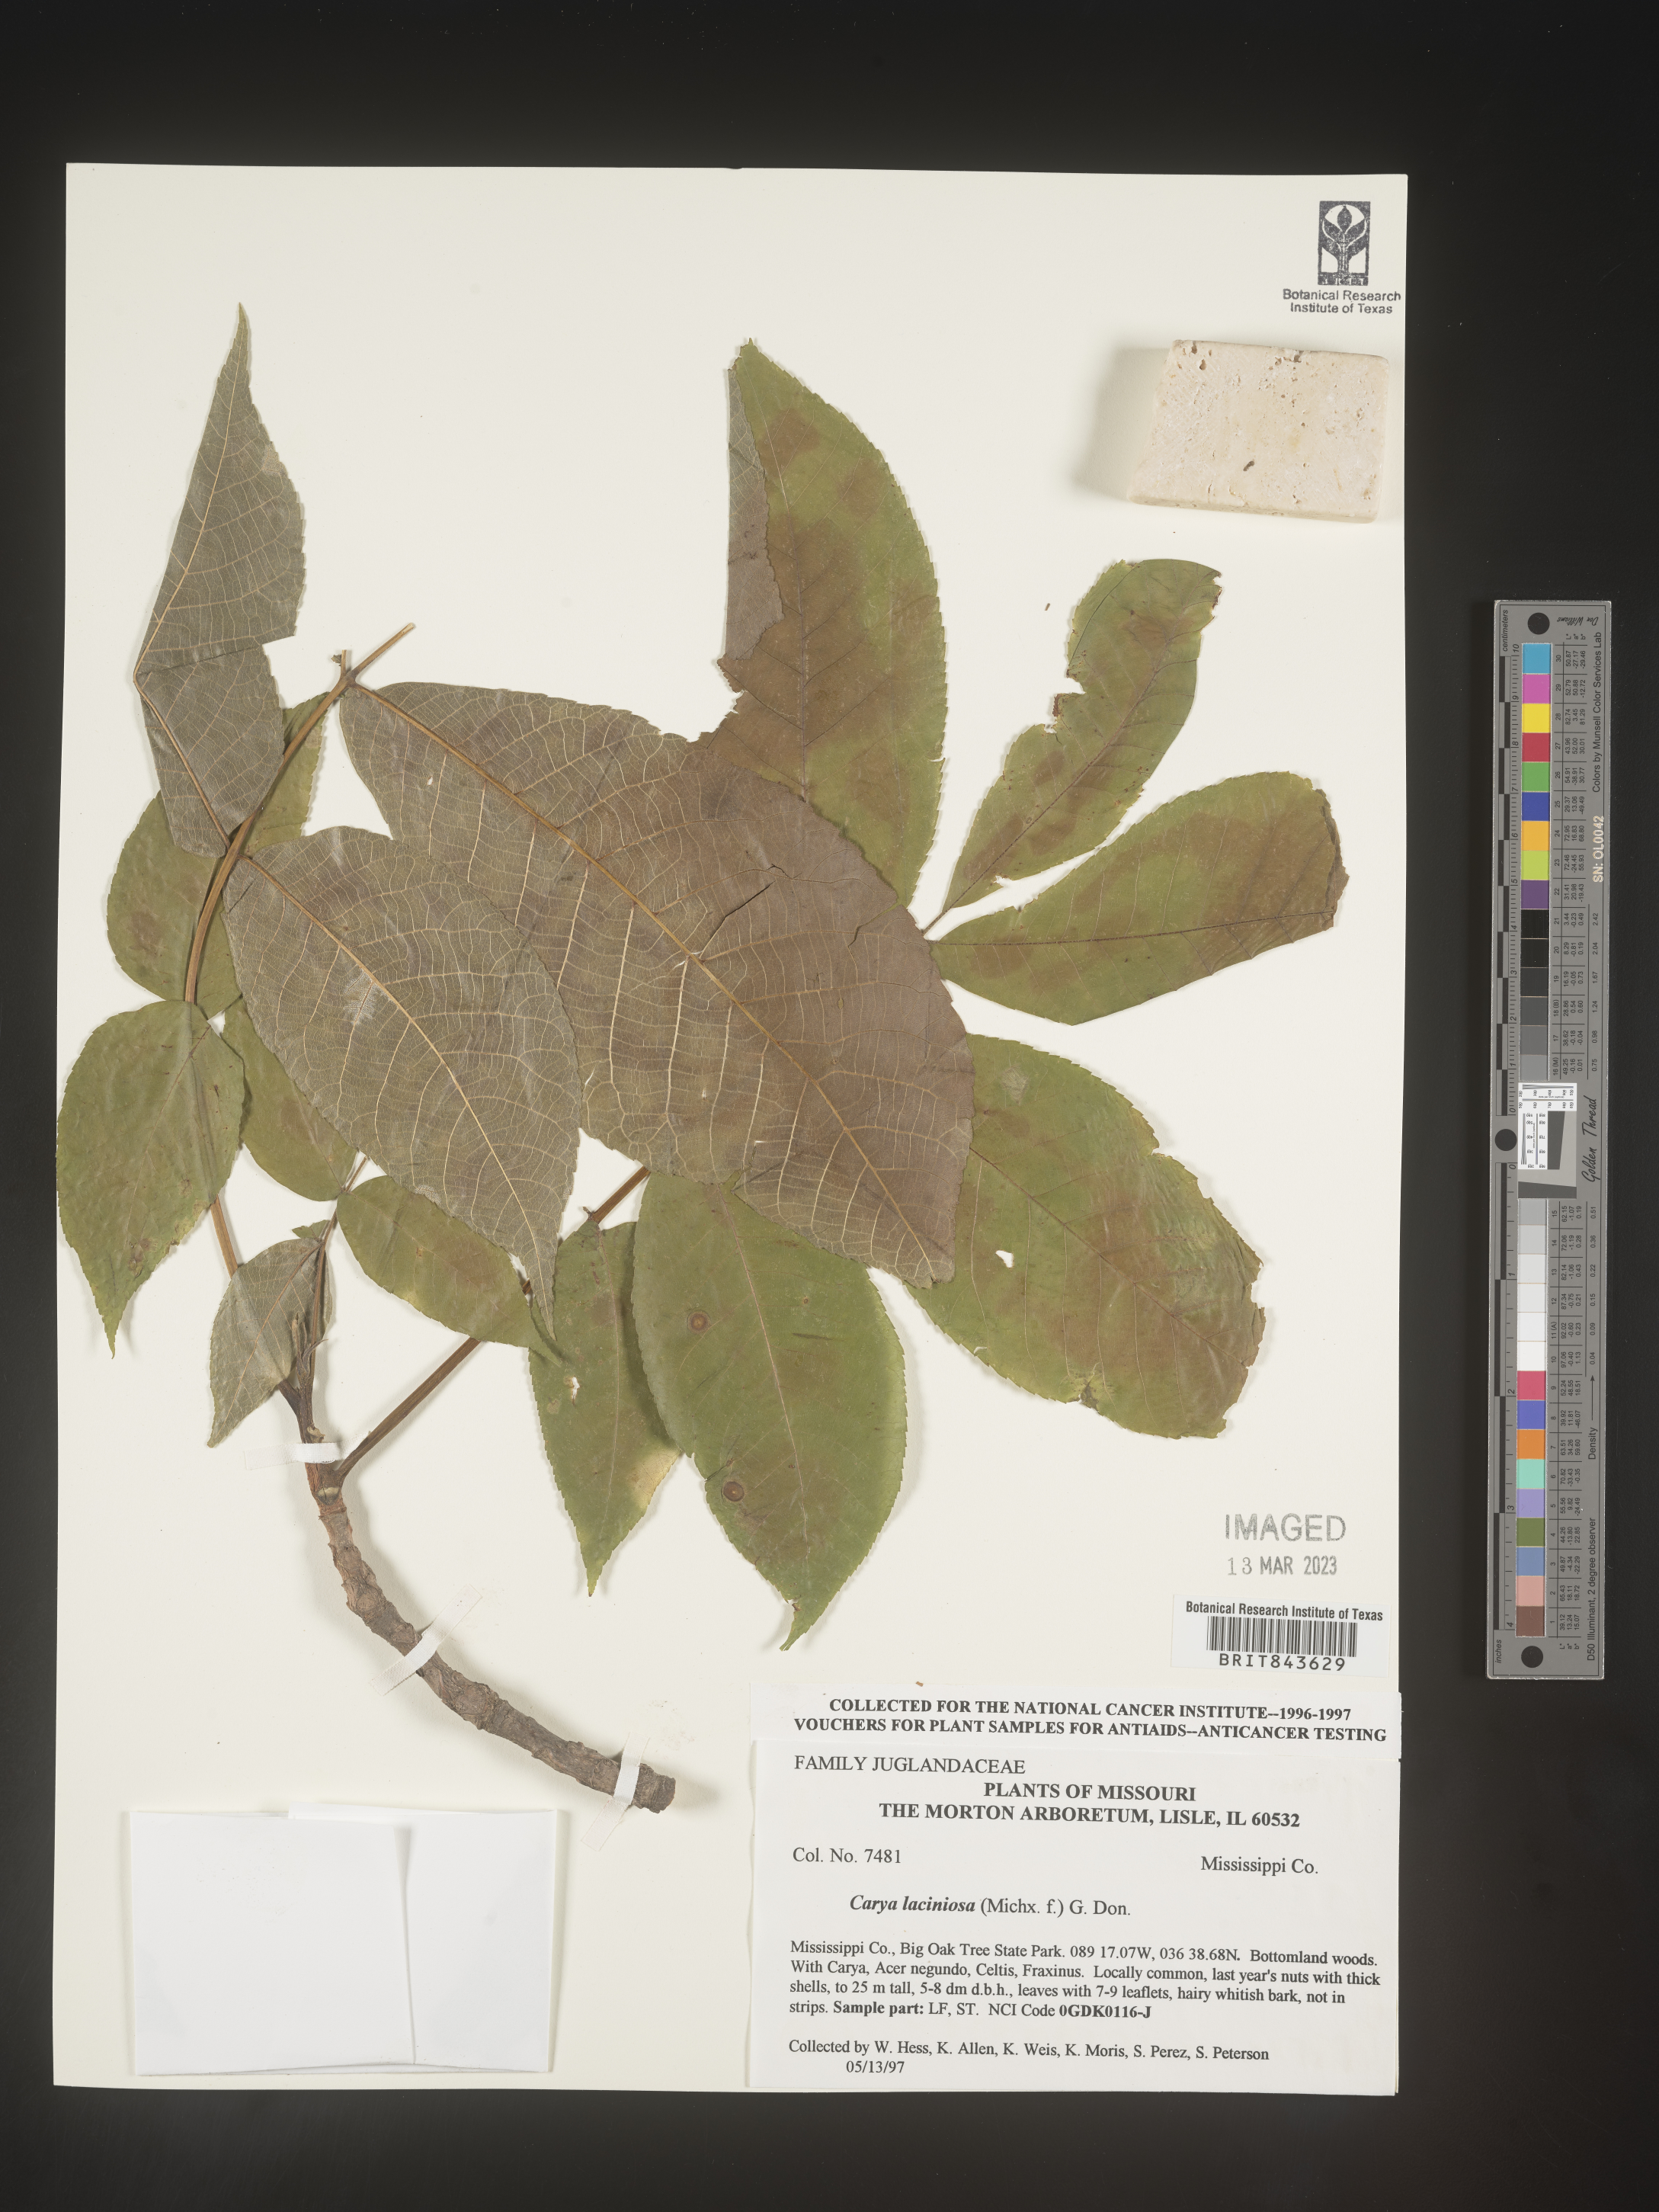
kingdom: Plantae
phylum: Tracheophyta
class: Magnoliopsida
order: Fagales
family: Juglandaceae
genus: Carya
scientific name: Carya laciniosa
